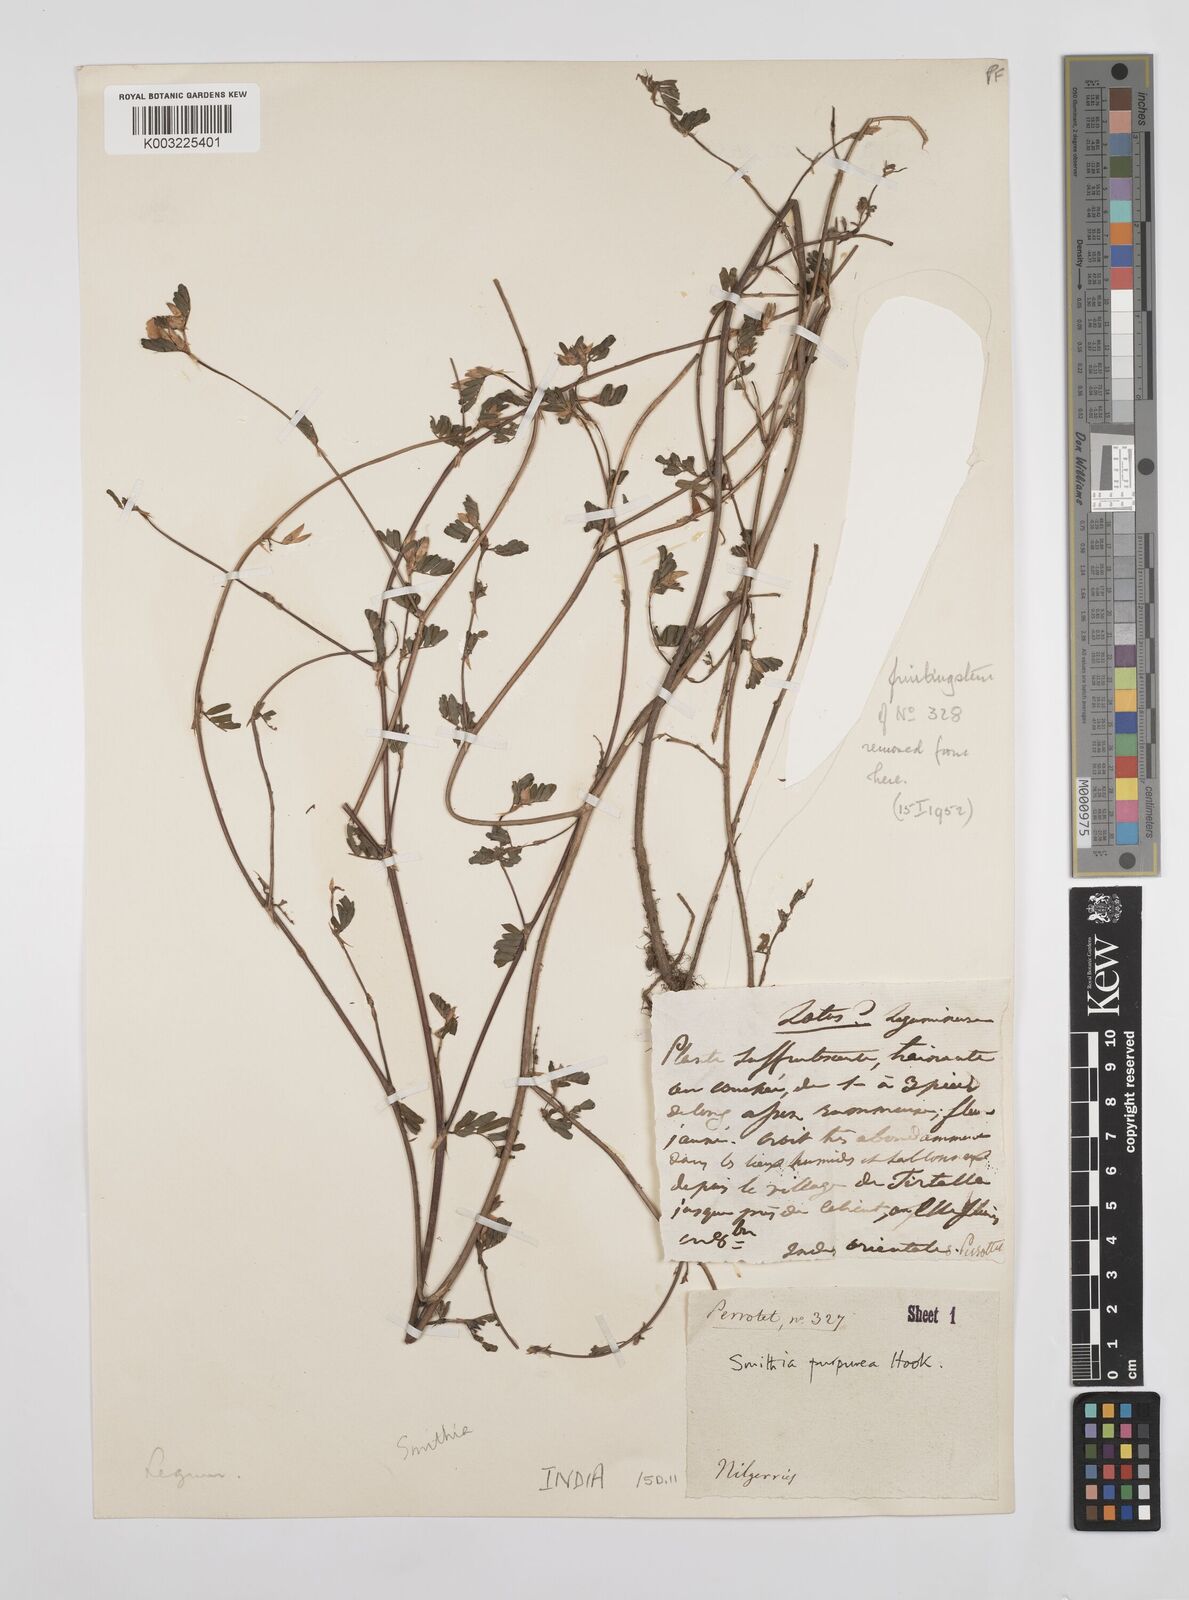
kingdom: Plantae
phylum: Tracheophyta
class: Magnoliopsida
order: Fabales
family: Fabaceae
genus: Smithia
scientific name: Smithia purpurea
